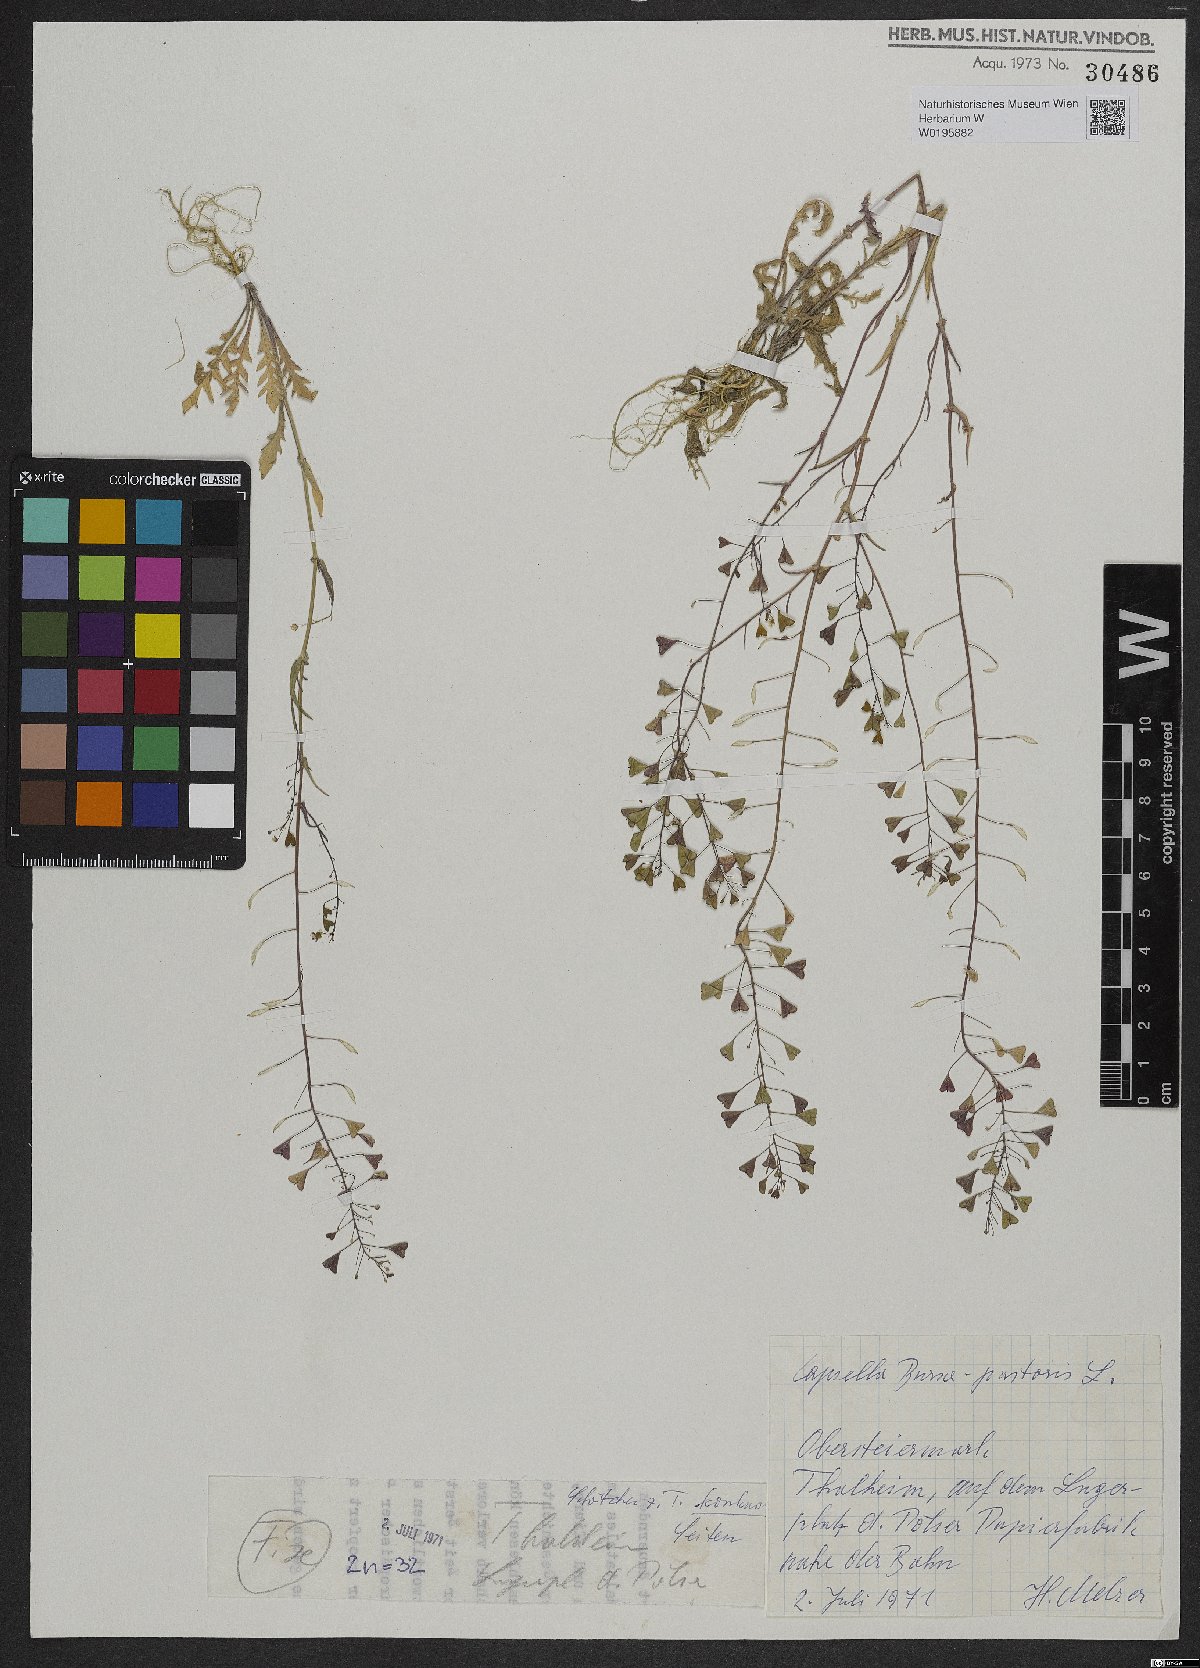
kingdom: Plantae
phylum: Tracheophyta
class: Magnoliopsida
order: Brassicales
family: Brassicaceae
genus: Capsella
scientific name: Capsella bursa-pastoris
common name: Shepherd's purse
